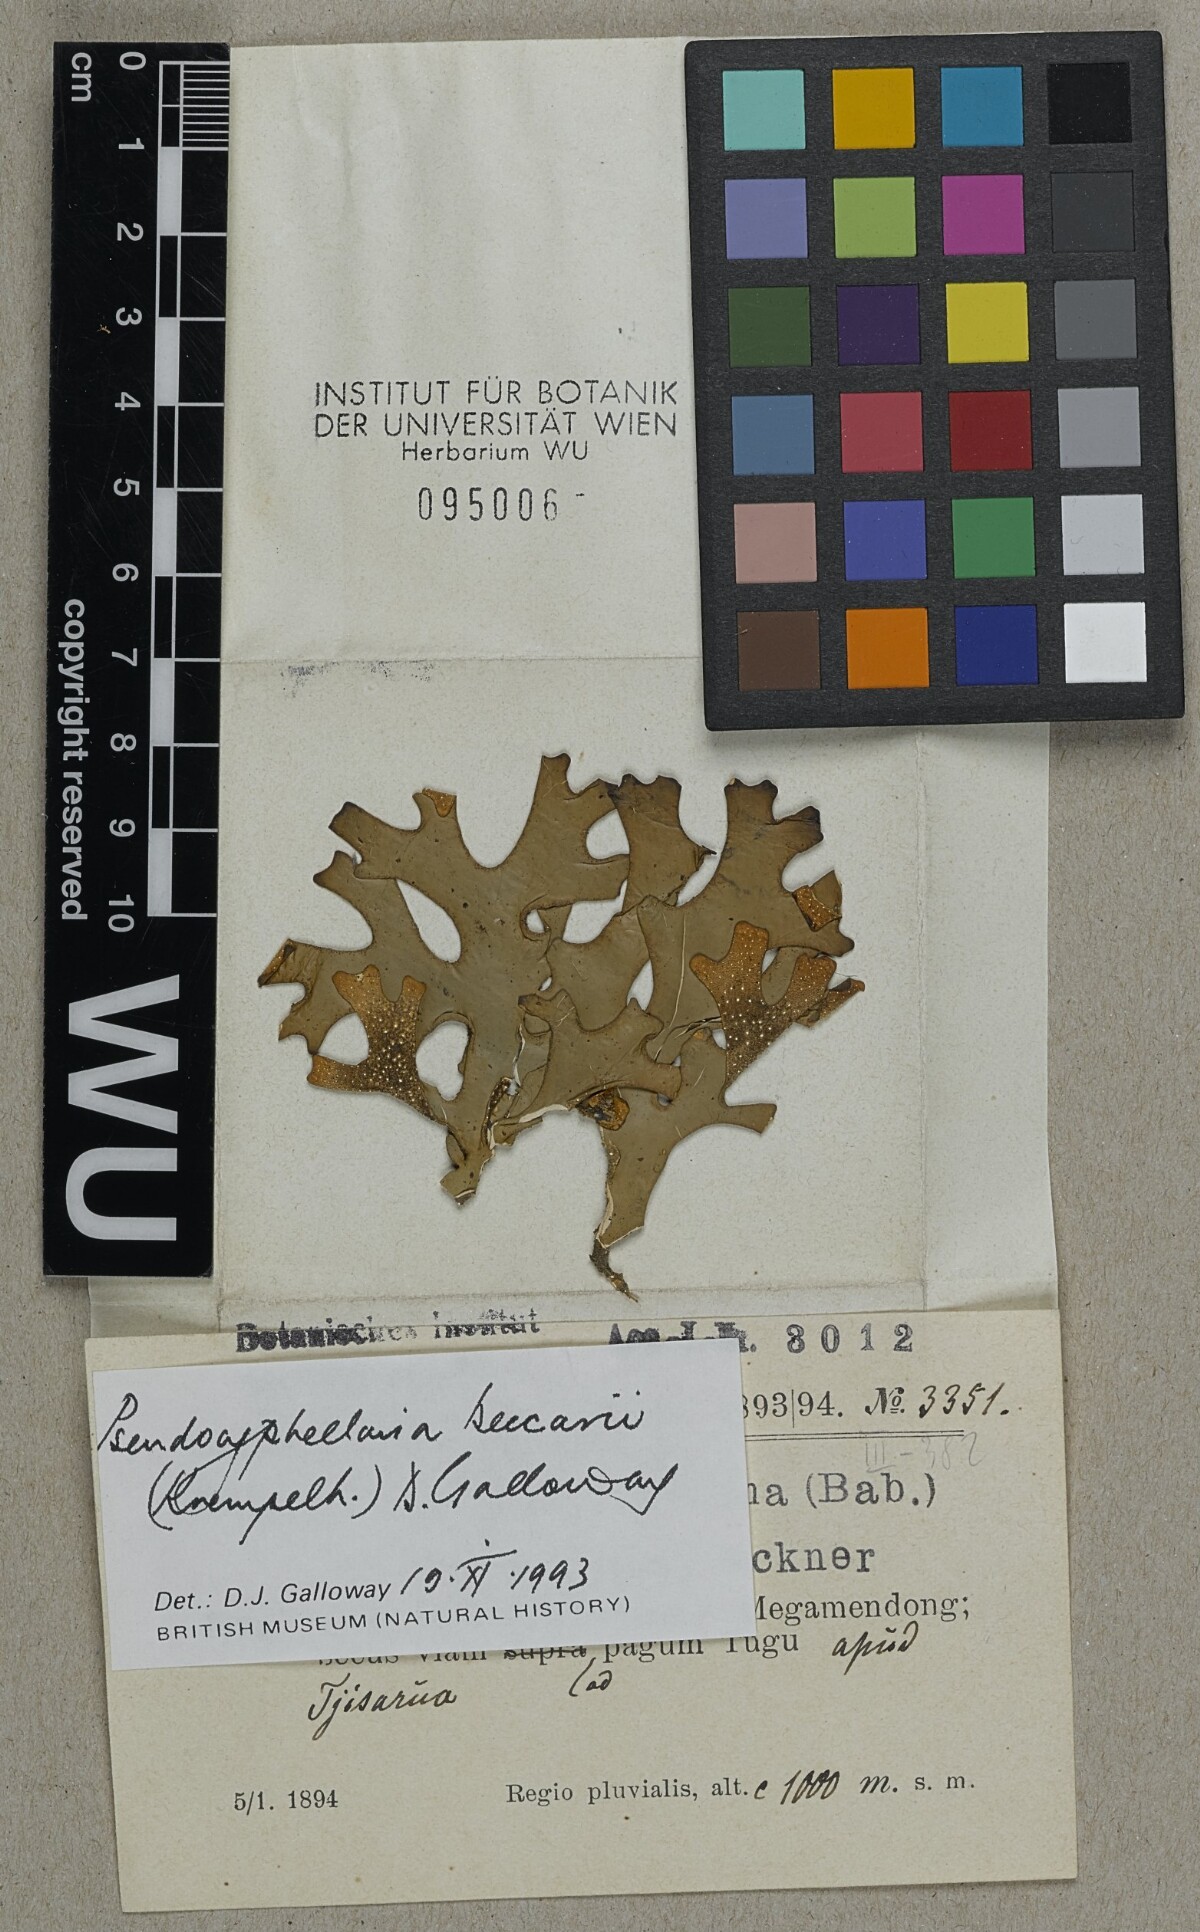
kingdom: Fungi
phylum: Ascomycota
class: Lecanoromycetes
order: Peltigerales
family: Lobariaceae
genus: Pseudocyphellaria
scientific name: Pseudocyphellaria beccarii
